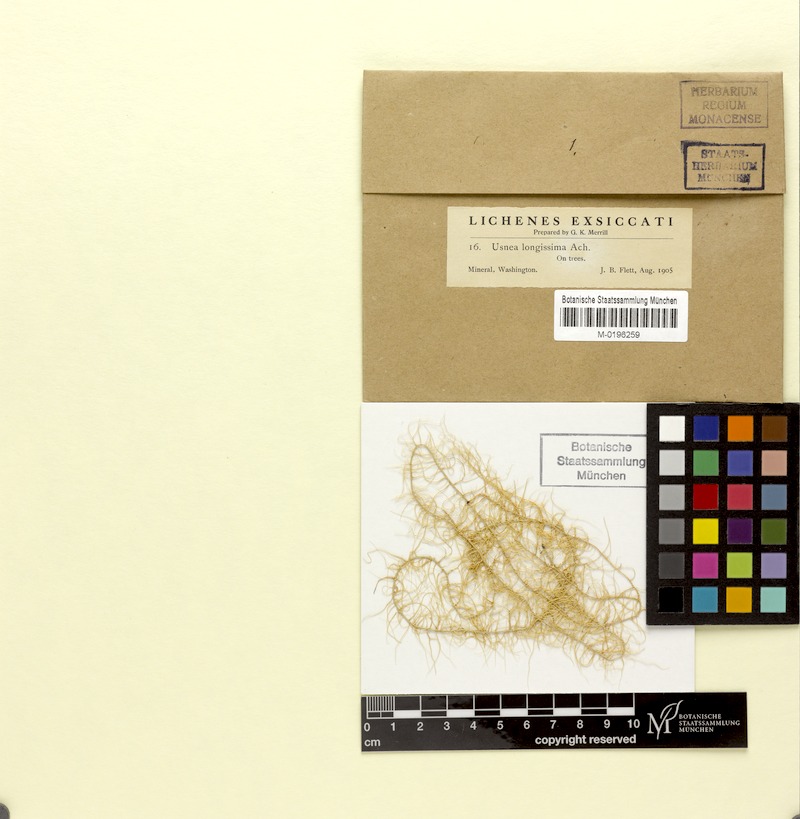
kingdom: Fungi
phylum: Ascomycota
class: Lecanoromycetes
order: Lecanorales
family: Parmeliaceae
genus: Dolichousnea
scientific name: Dolichousnea longissima
